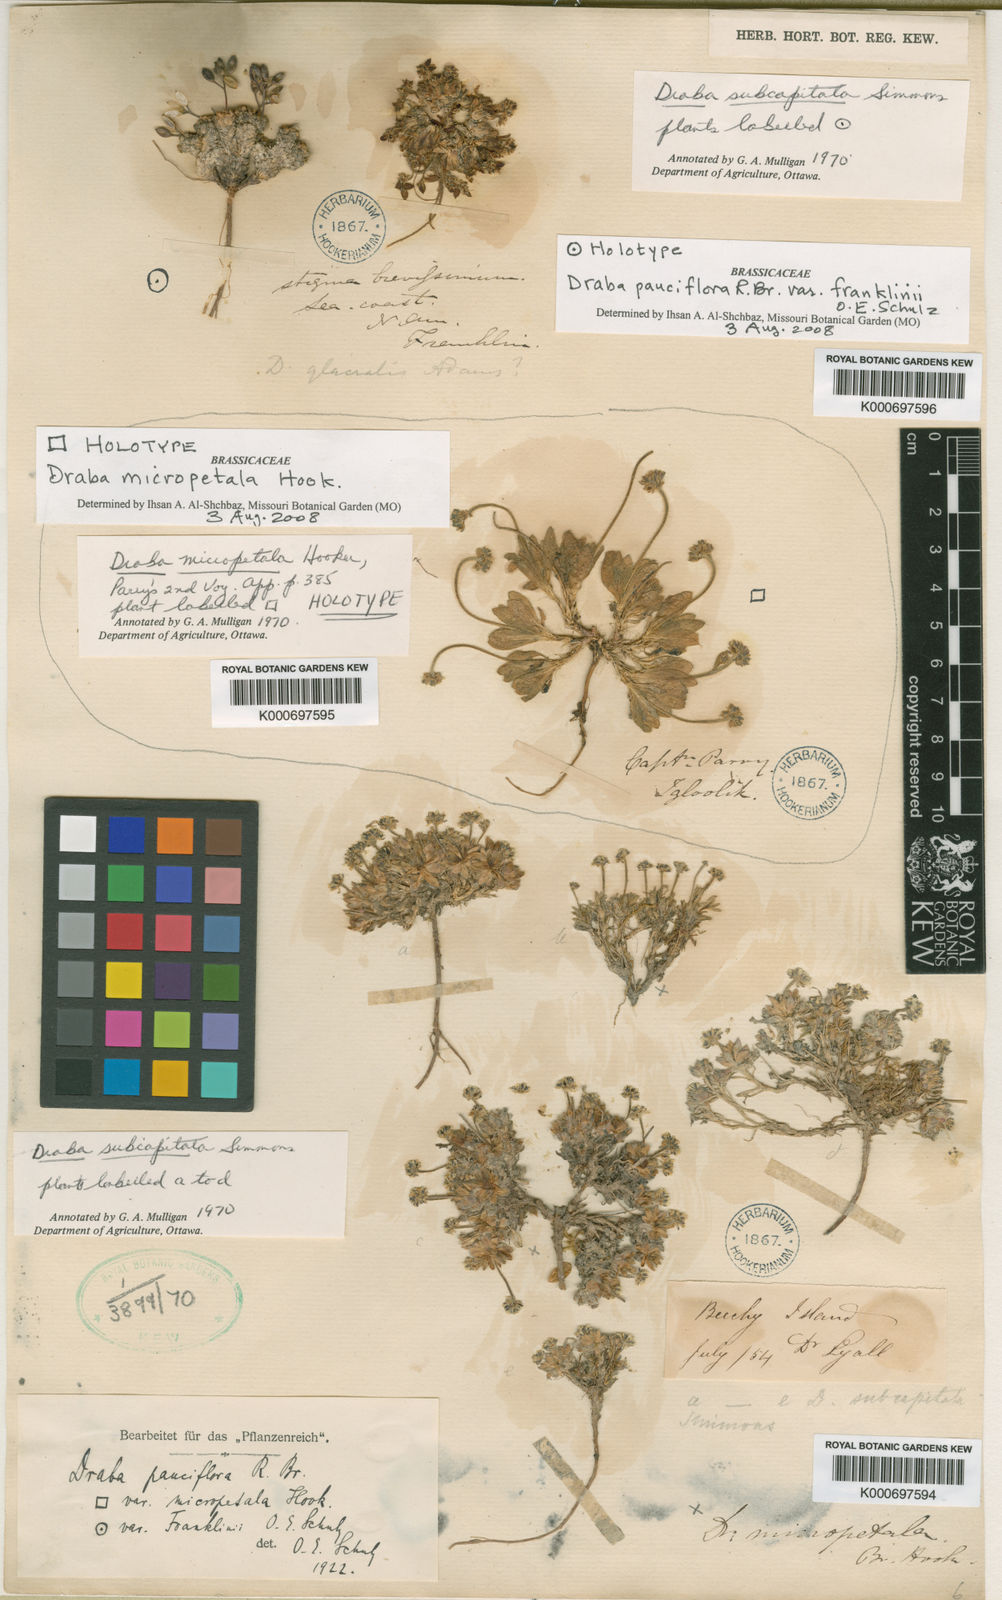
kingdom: Plantae
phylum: Tracheophyta
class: Magnoliopsida
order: Brassicales
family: Brassicaceae
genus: Draba
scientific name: Draba micropetala
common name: Small-flowered draba
